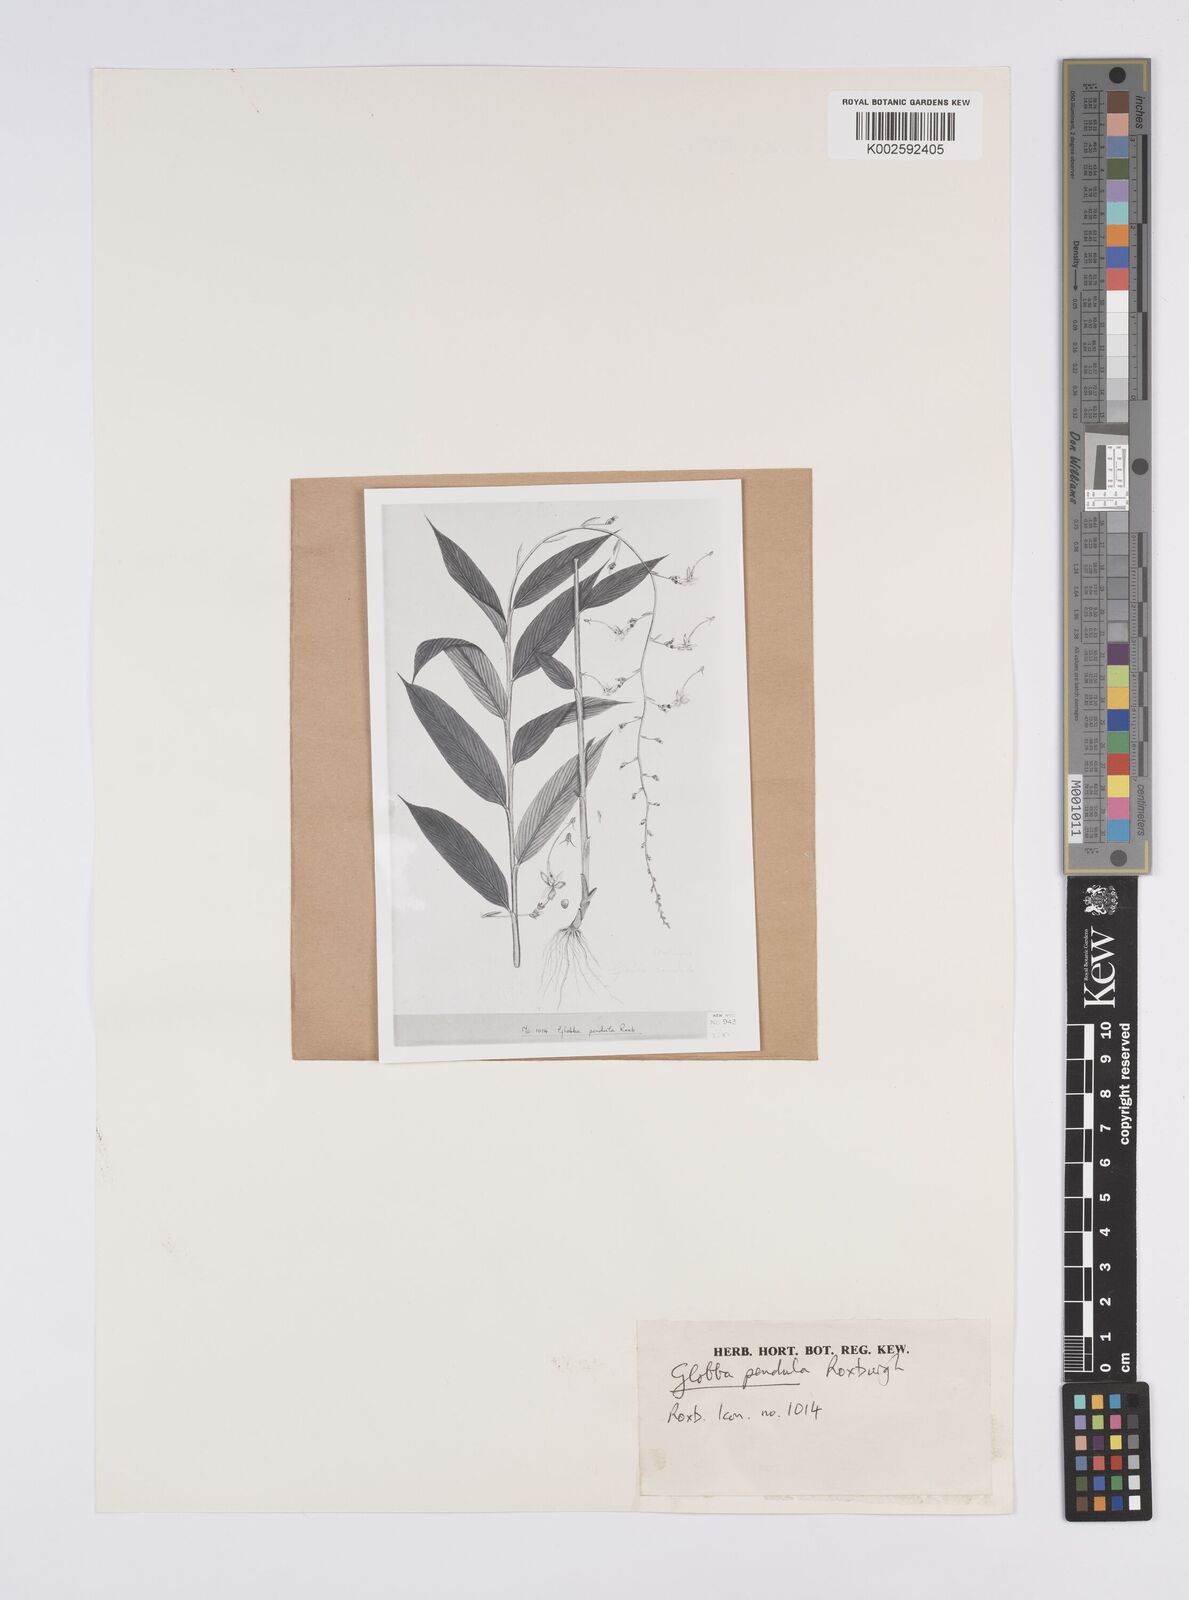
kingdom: Plantae
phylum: Tracheophyta
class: Liliopsida
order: Zingiberales
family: Zingiberaceae
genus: Globba
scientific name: Globba pendula
